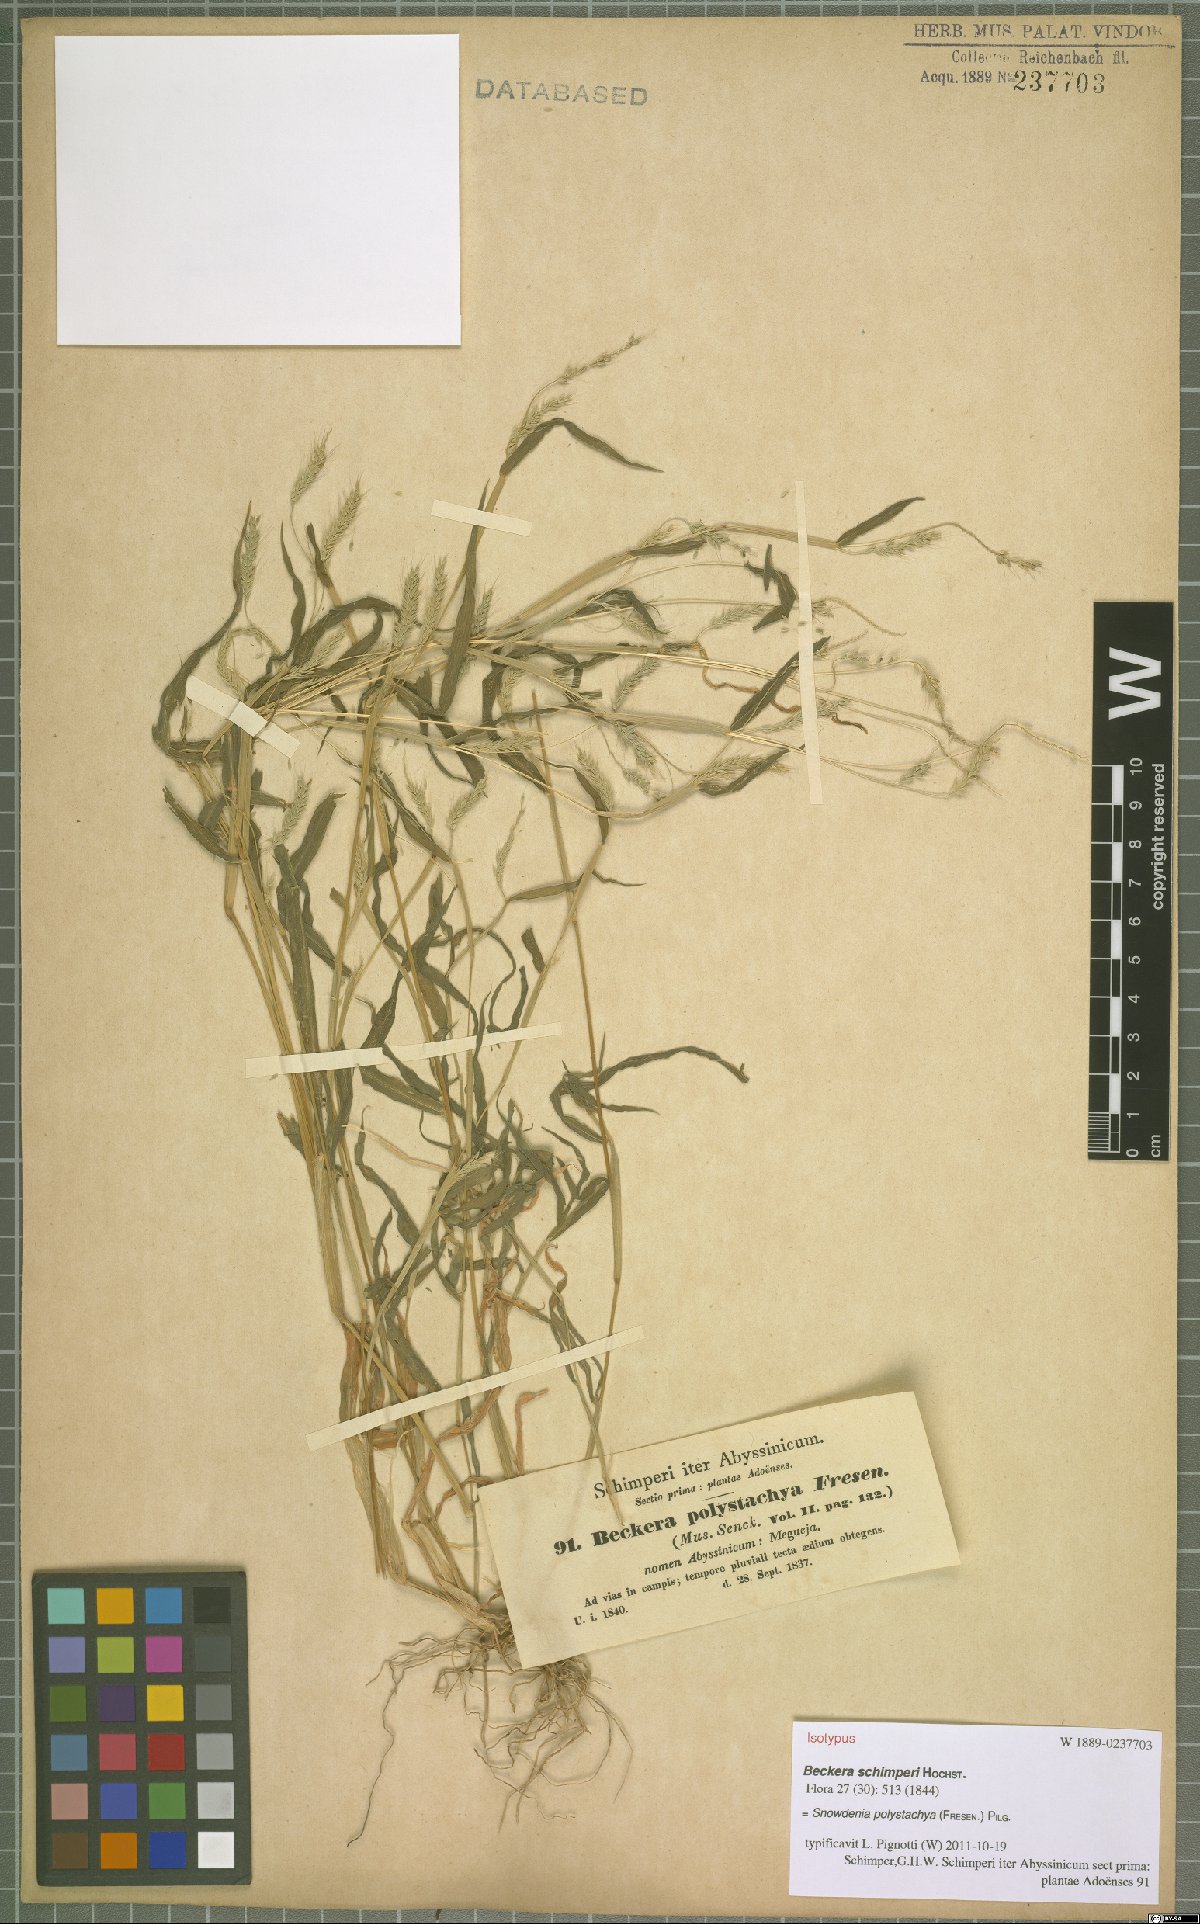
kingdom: Plantae
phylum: Tracheophyta
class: Liliopsida
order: Poales
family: Poaceae
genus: Snowdenia
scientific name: Snowdenia polystachya
